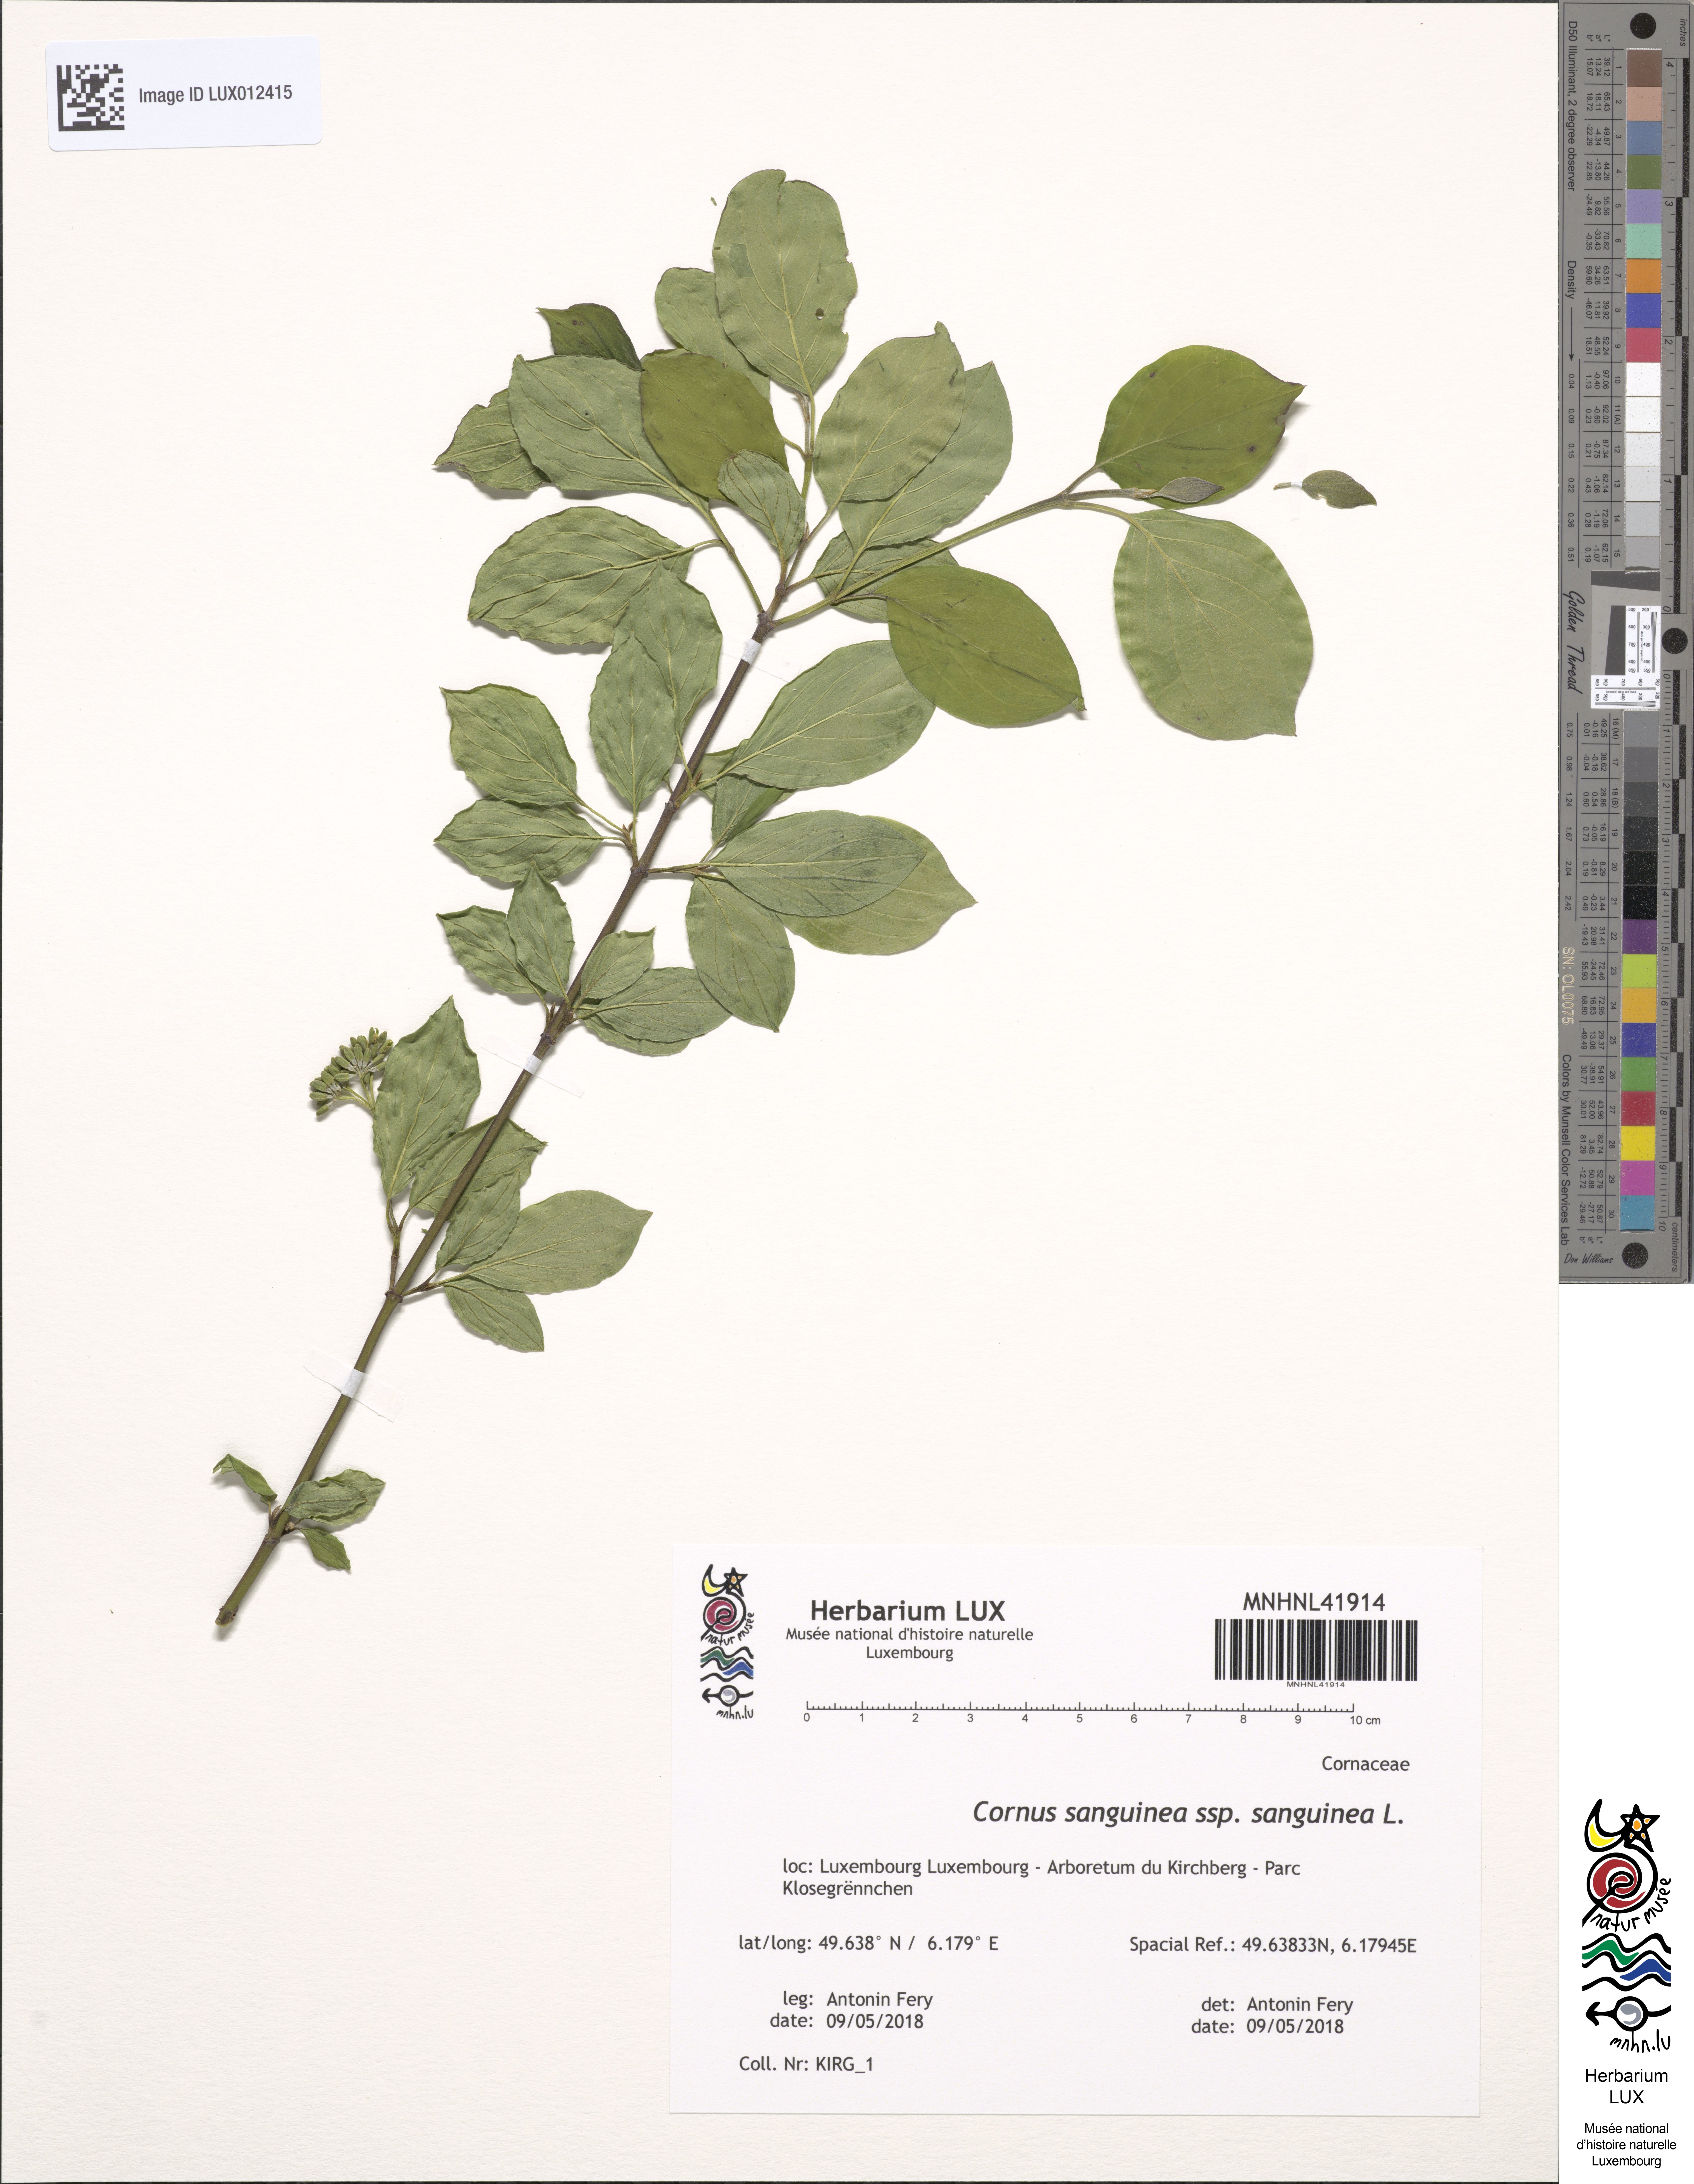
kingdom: Plantae
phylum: Tracheophyta
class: Magnoliopsida
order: Cornales
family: Cornaceae
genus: Cornus
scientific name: Cornus sanguinea
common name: Dogwood
